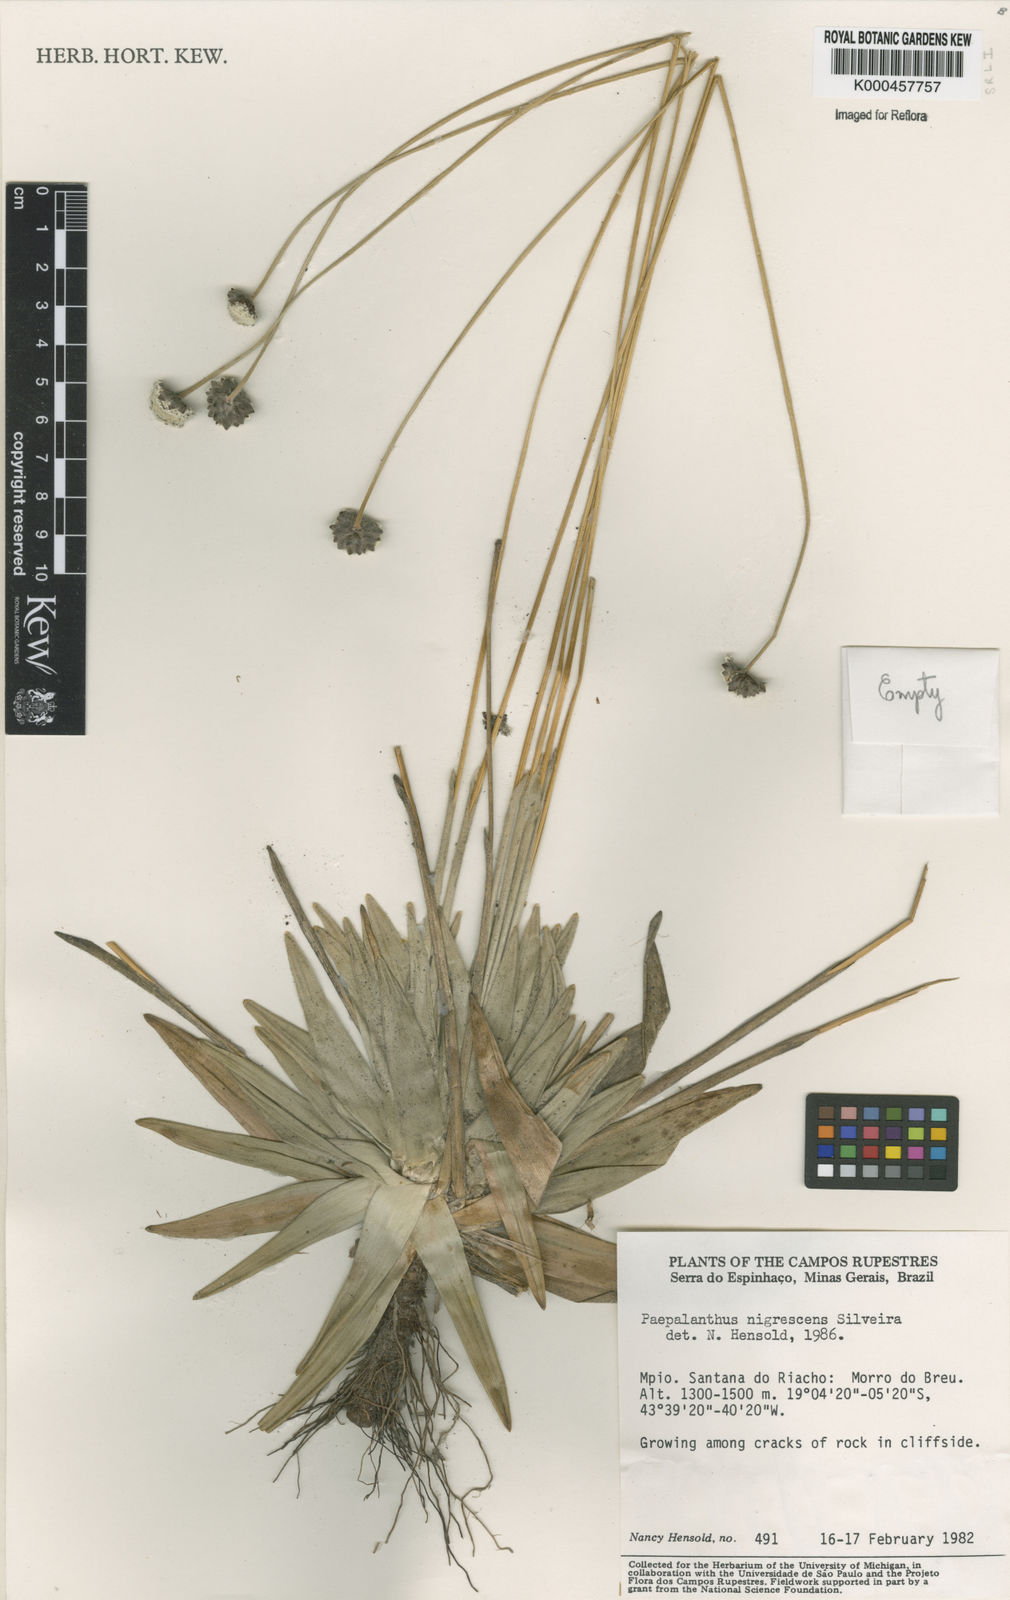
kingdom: Plantae
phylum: Tracheophyta
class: Liliopsida
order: Poales
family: Eriocaulaceae
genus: Paepalanthus
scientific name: Paepalanthus nigrescens
